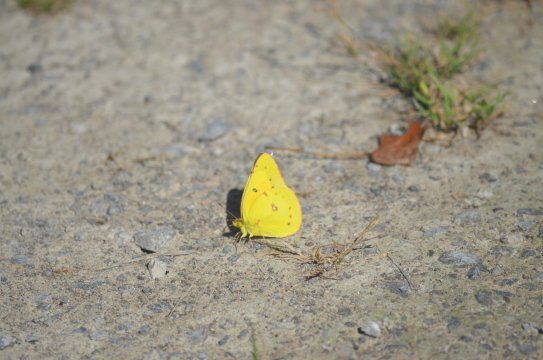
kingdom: Animalia
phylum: Arthropoda
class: Insecta
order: Lepidoptera
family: Pieridae
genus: Colias
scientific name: Colias eurytheme
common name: Orange Sulphur
